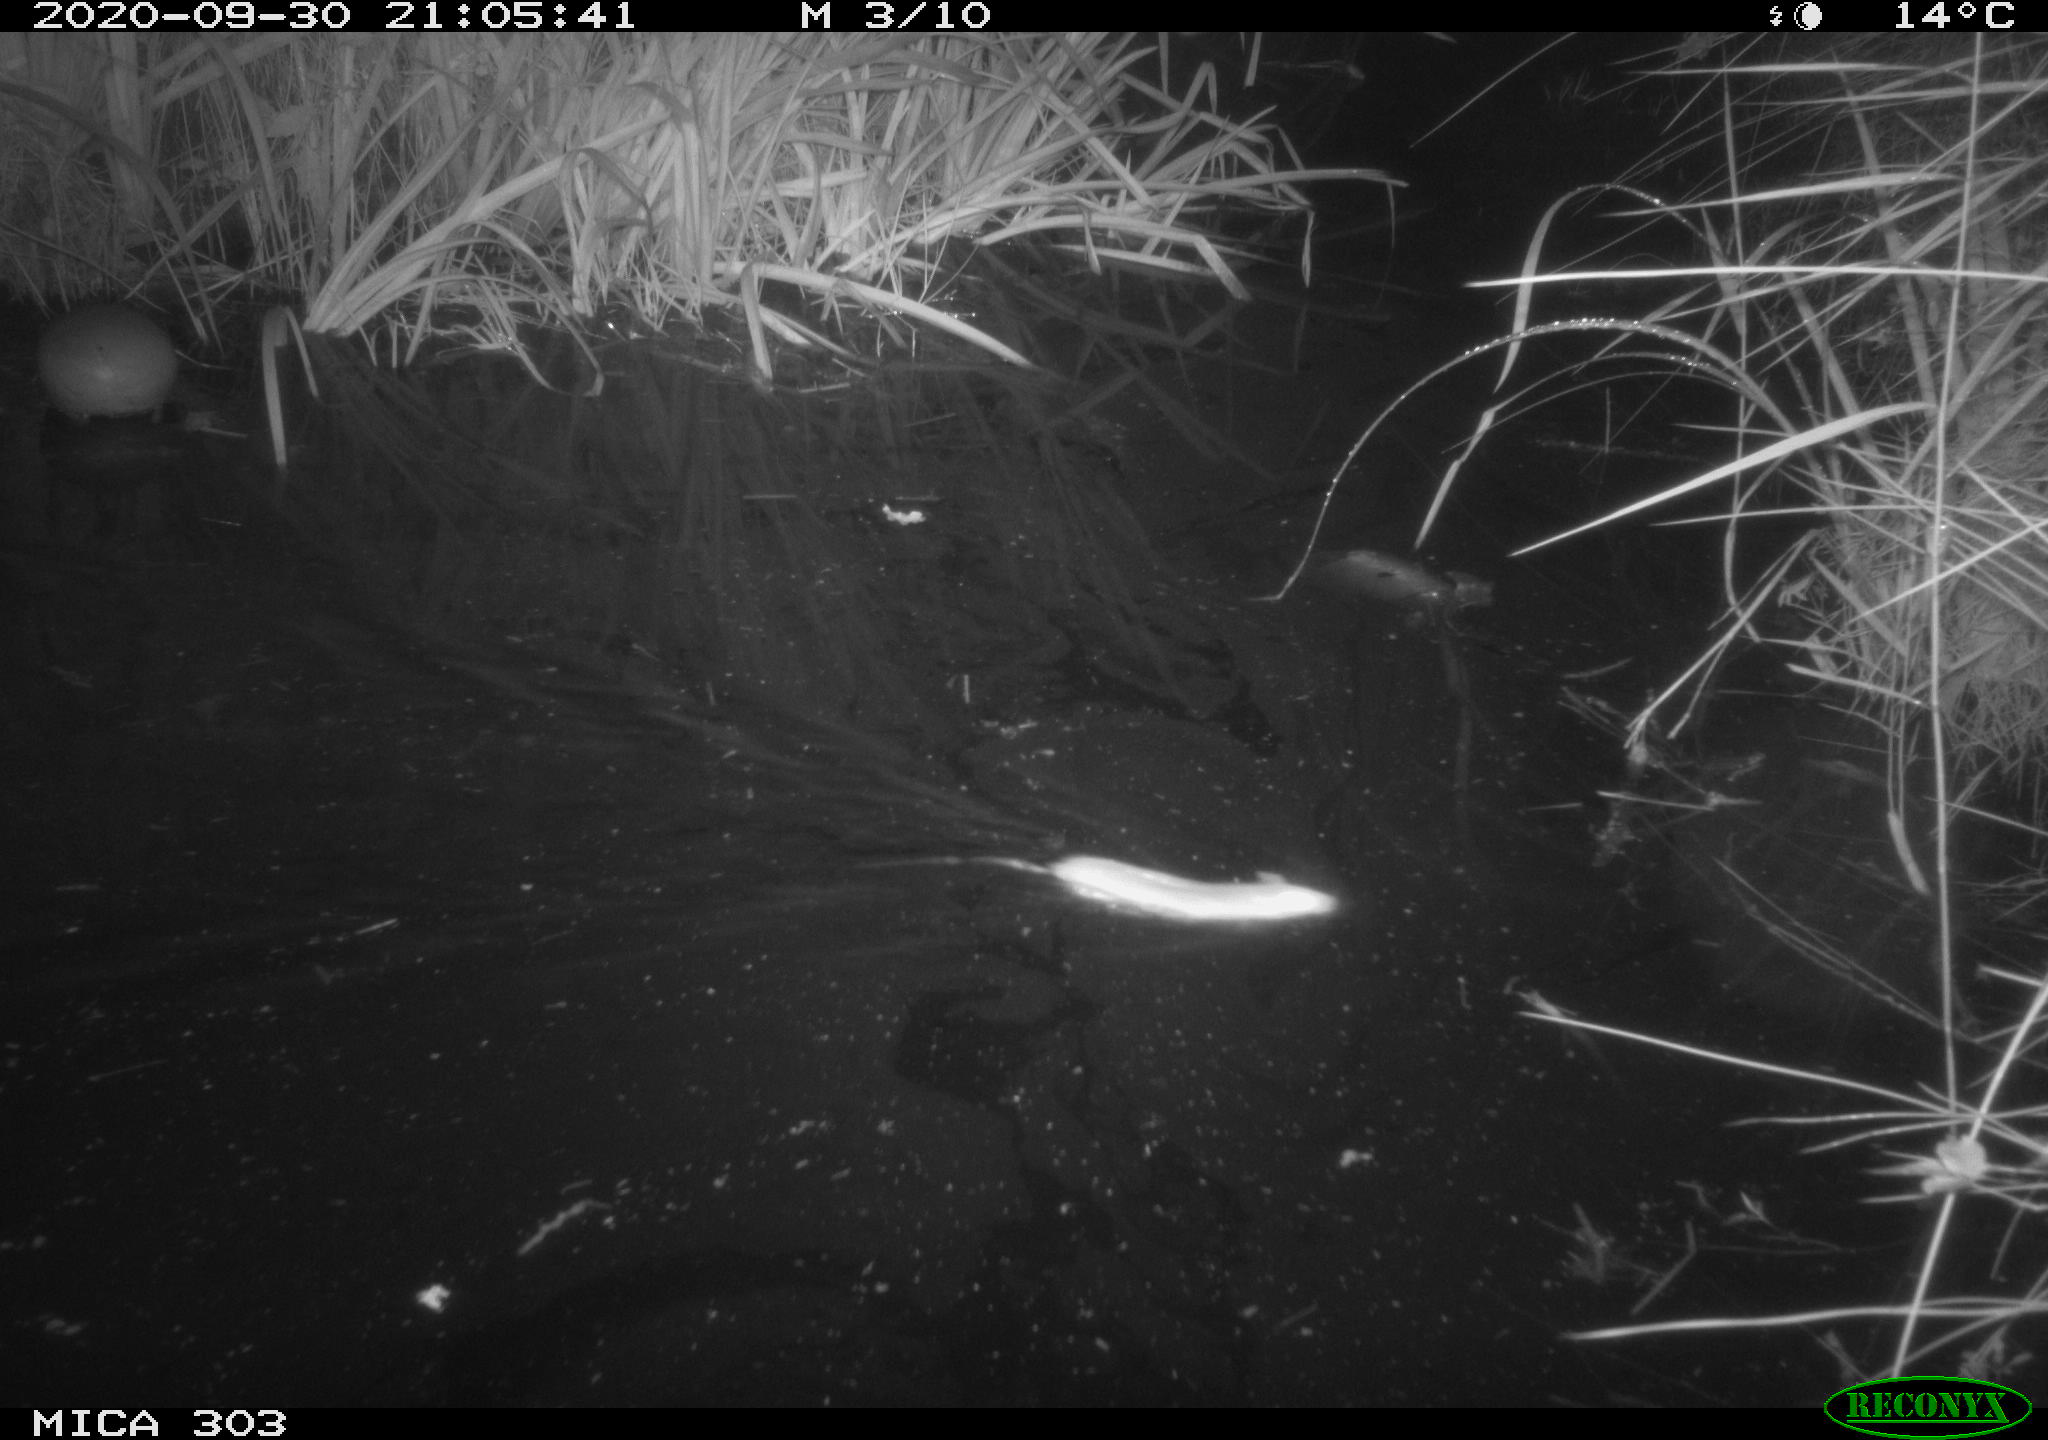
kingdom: Animalia
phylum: Chordata
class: Mammalia
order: Rodentia
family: Muridae
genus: Rattus
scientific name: Rattus norvegicus
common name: Brown rat
